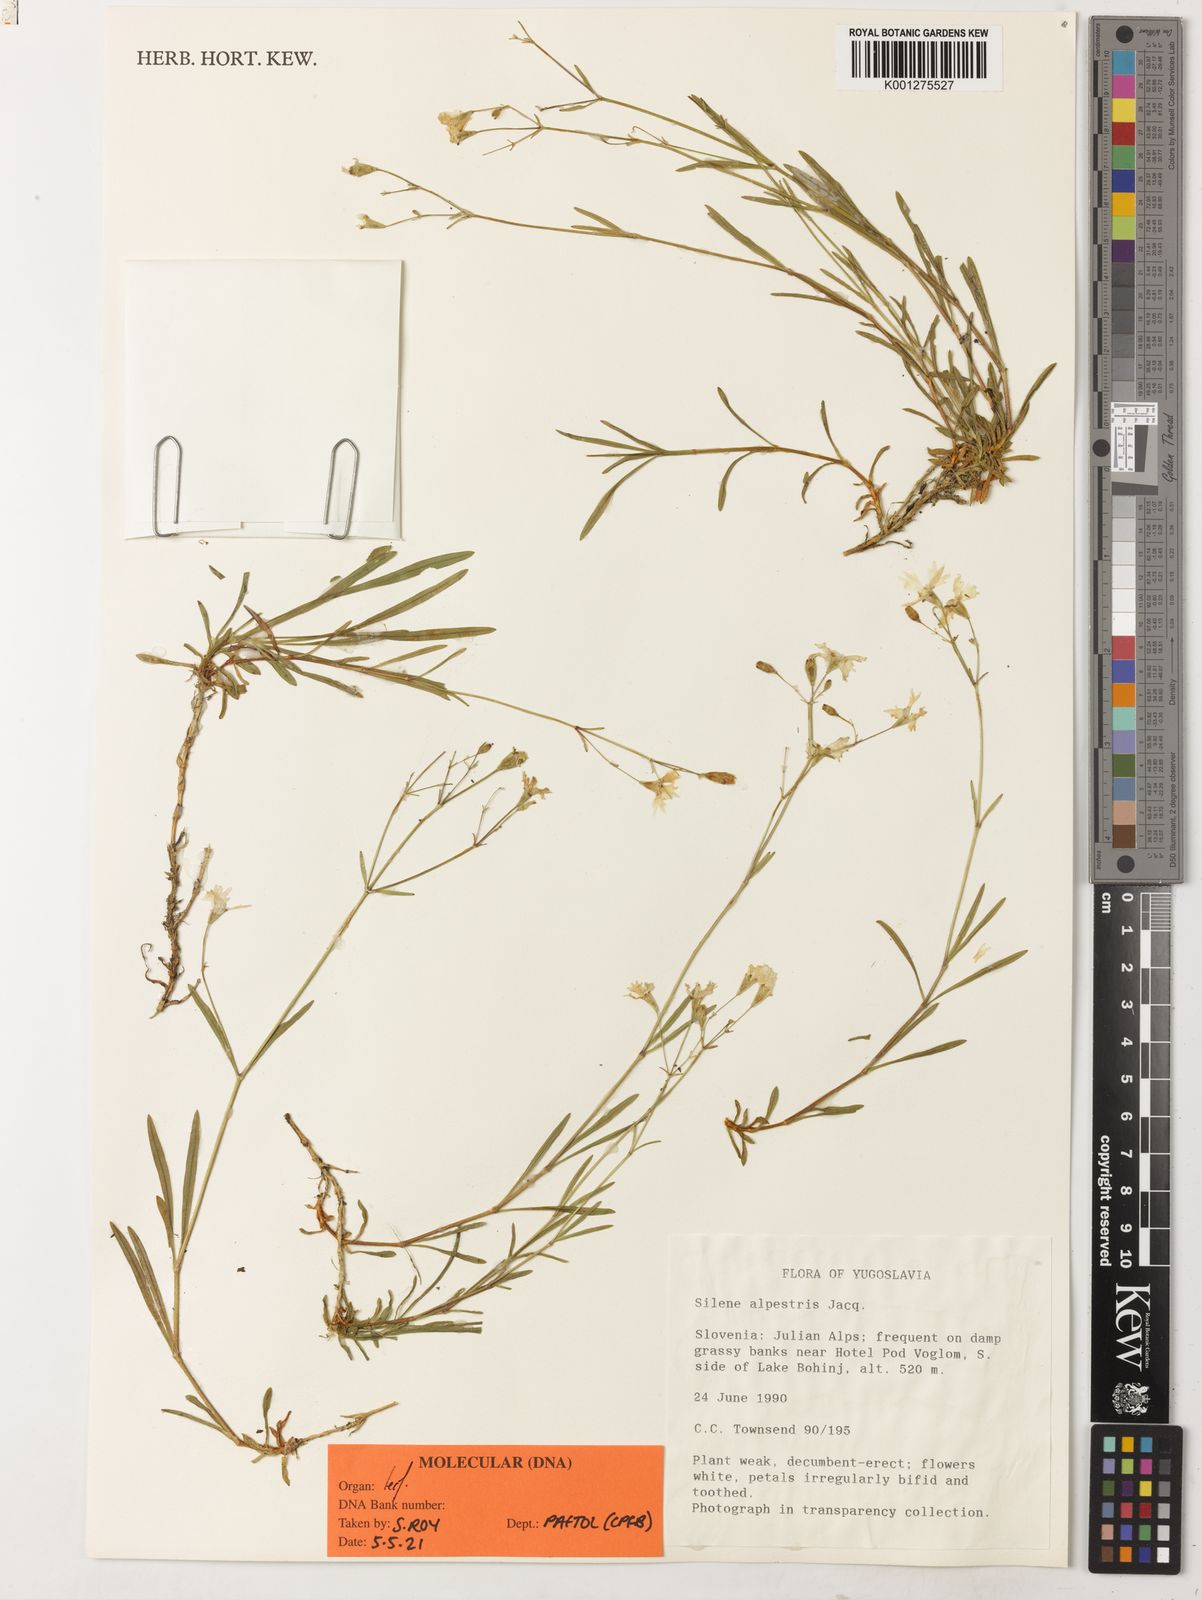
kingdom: Plantae
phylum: Tracheophyta
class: Magnoliopsida
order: Laurales
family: Monimiaceae
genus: Hennecartia
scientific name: Hennecartia omphalandra
